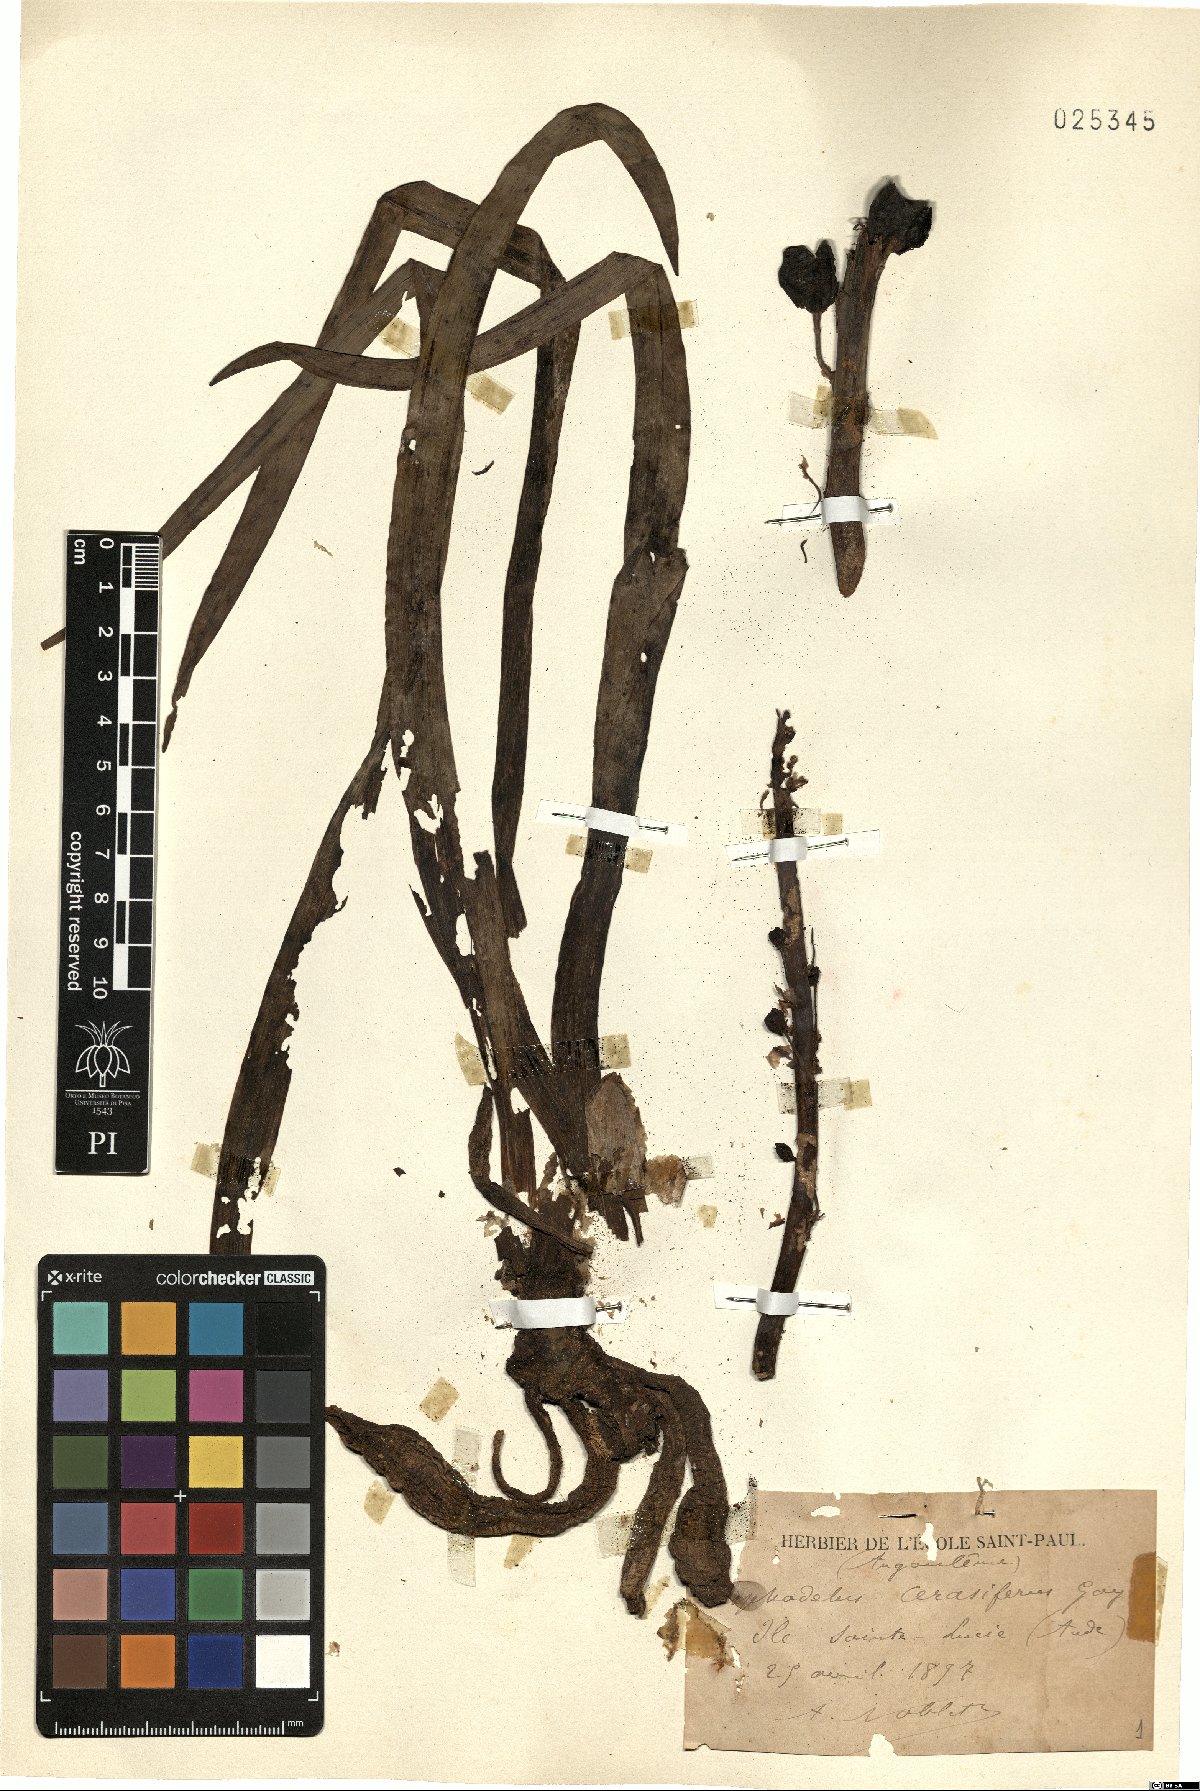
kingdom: Plantae
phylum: Tracheophyta
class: Liliopsida
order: Asparagales
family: Asphodelaceae
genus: Asphodelus
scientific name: Asphodelus cerasifer
